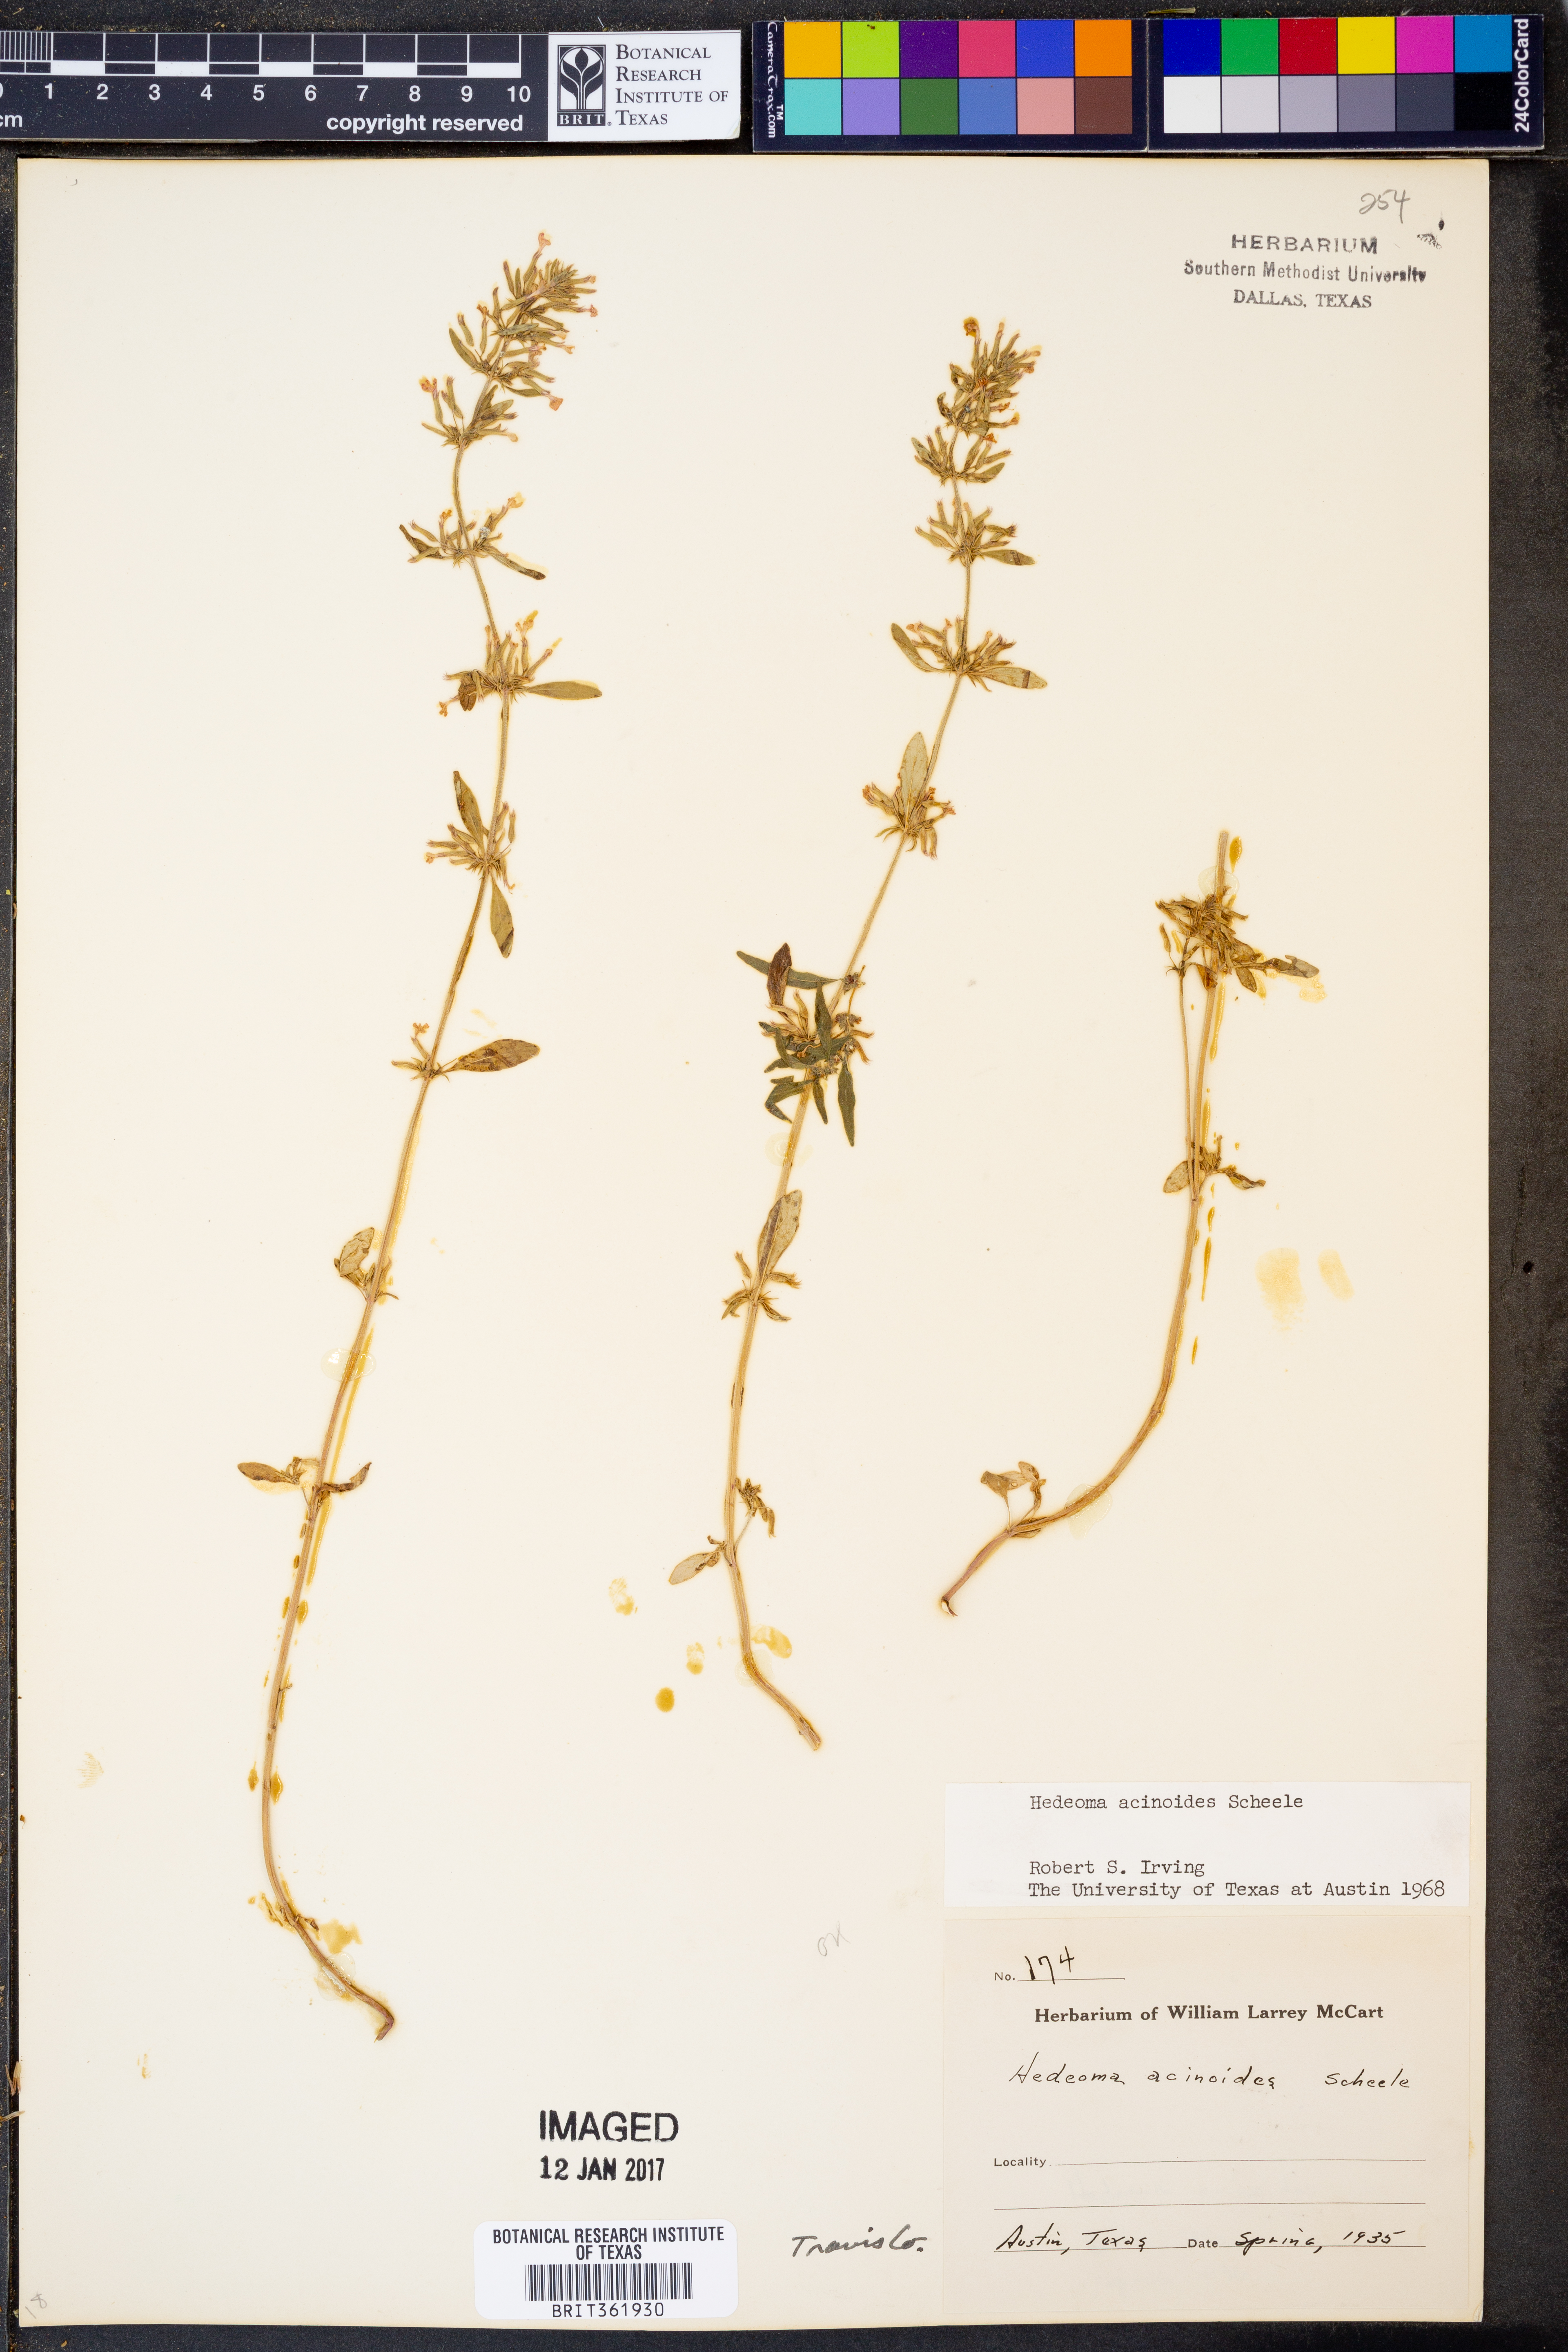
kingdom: Plantae
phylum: Tracheophyta
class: Magnoliopsida
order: Lamiales
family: Lamiaceae
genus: Hedeoma
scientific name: Hedeoma acinoides
